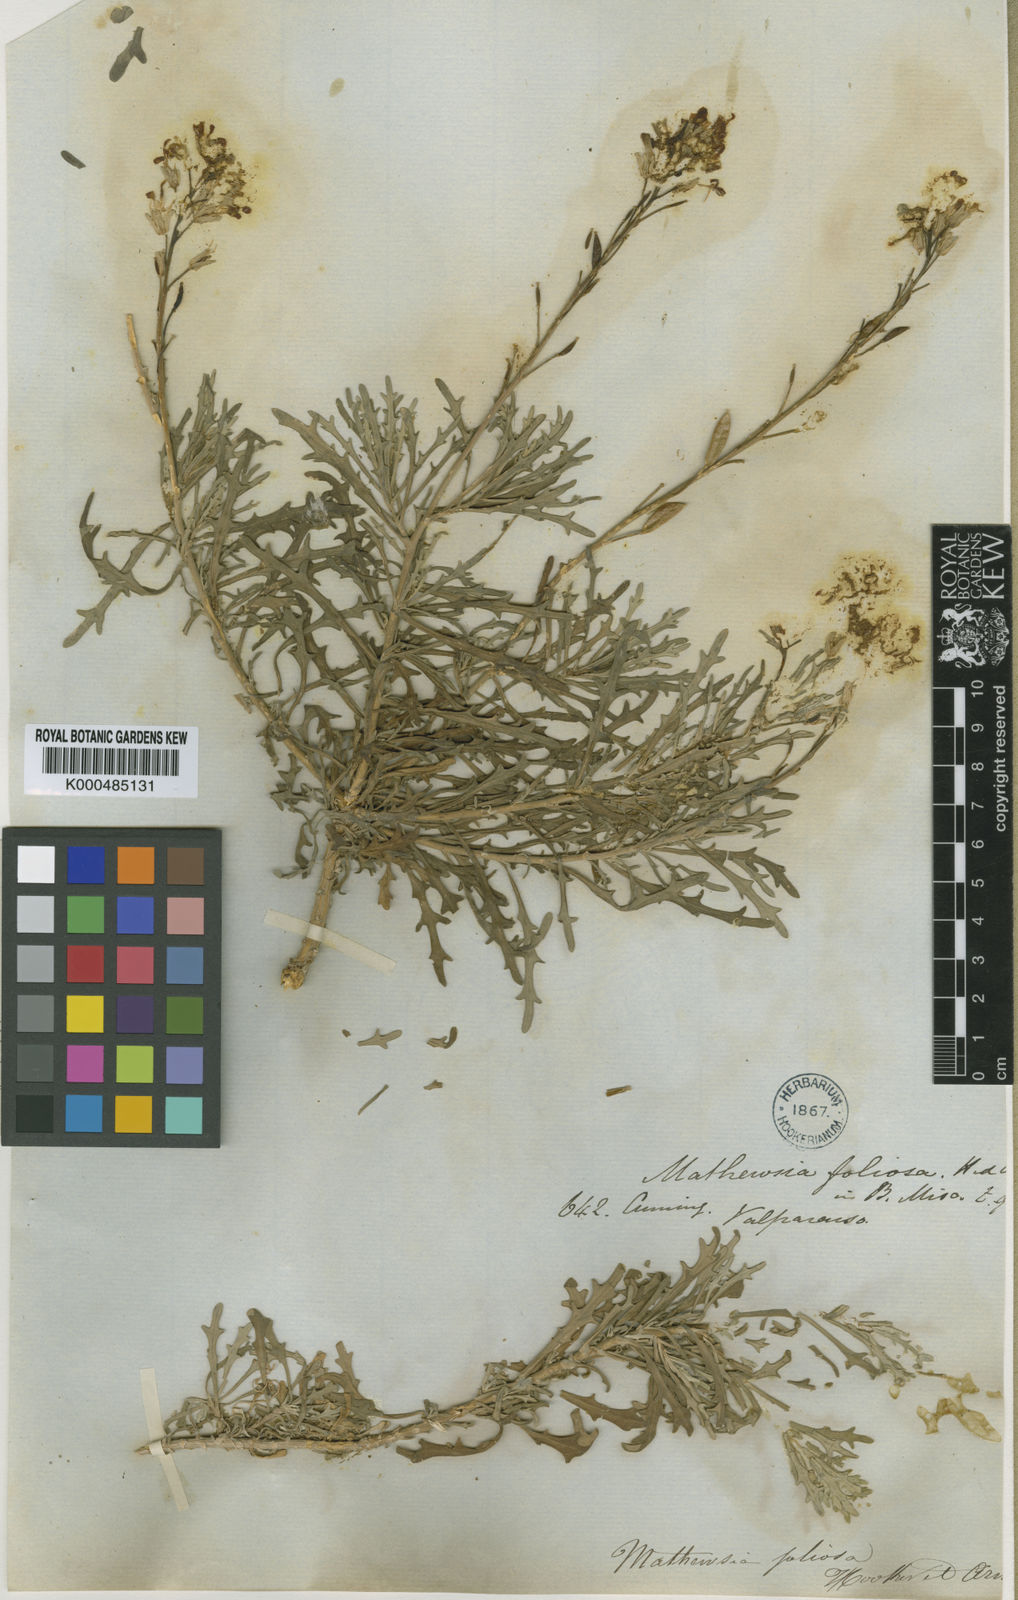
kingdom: Plantae
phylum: Tracheophyta
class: Magnoliopsida
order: Brassicales
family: Brassicaceae
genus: Mathewsia
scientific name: Mathewsia foliosa
